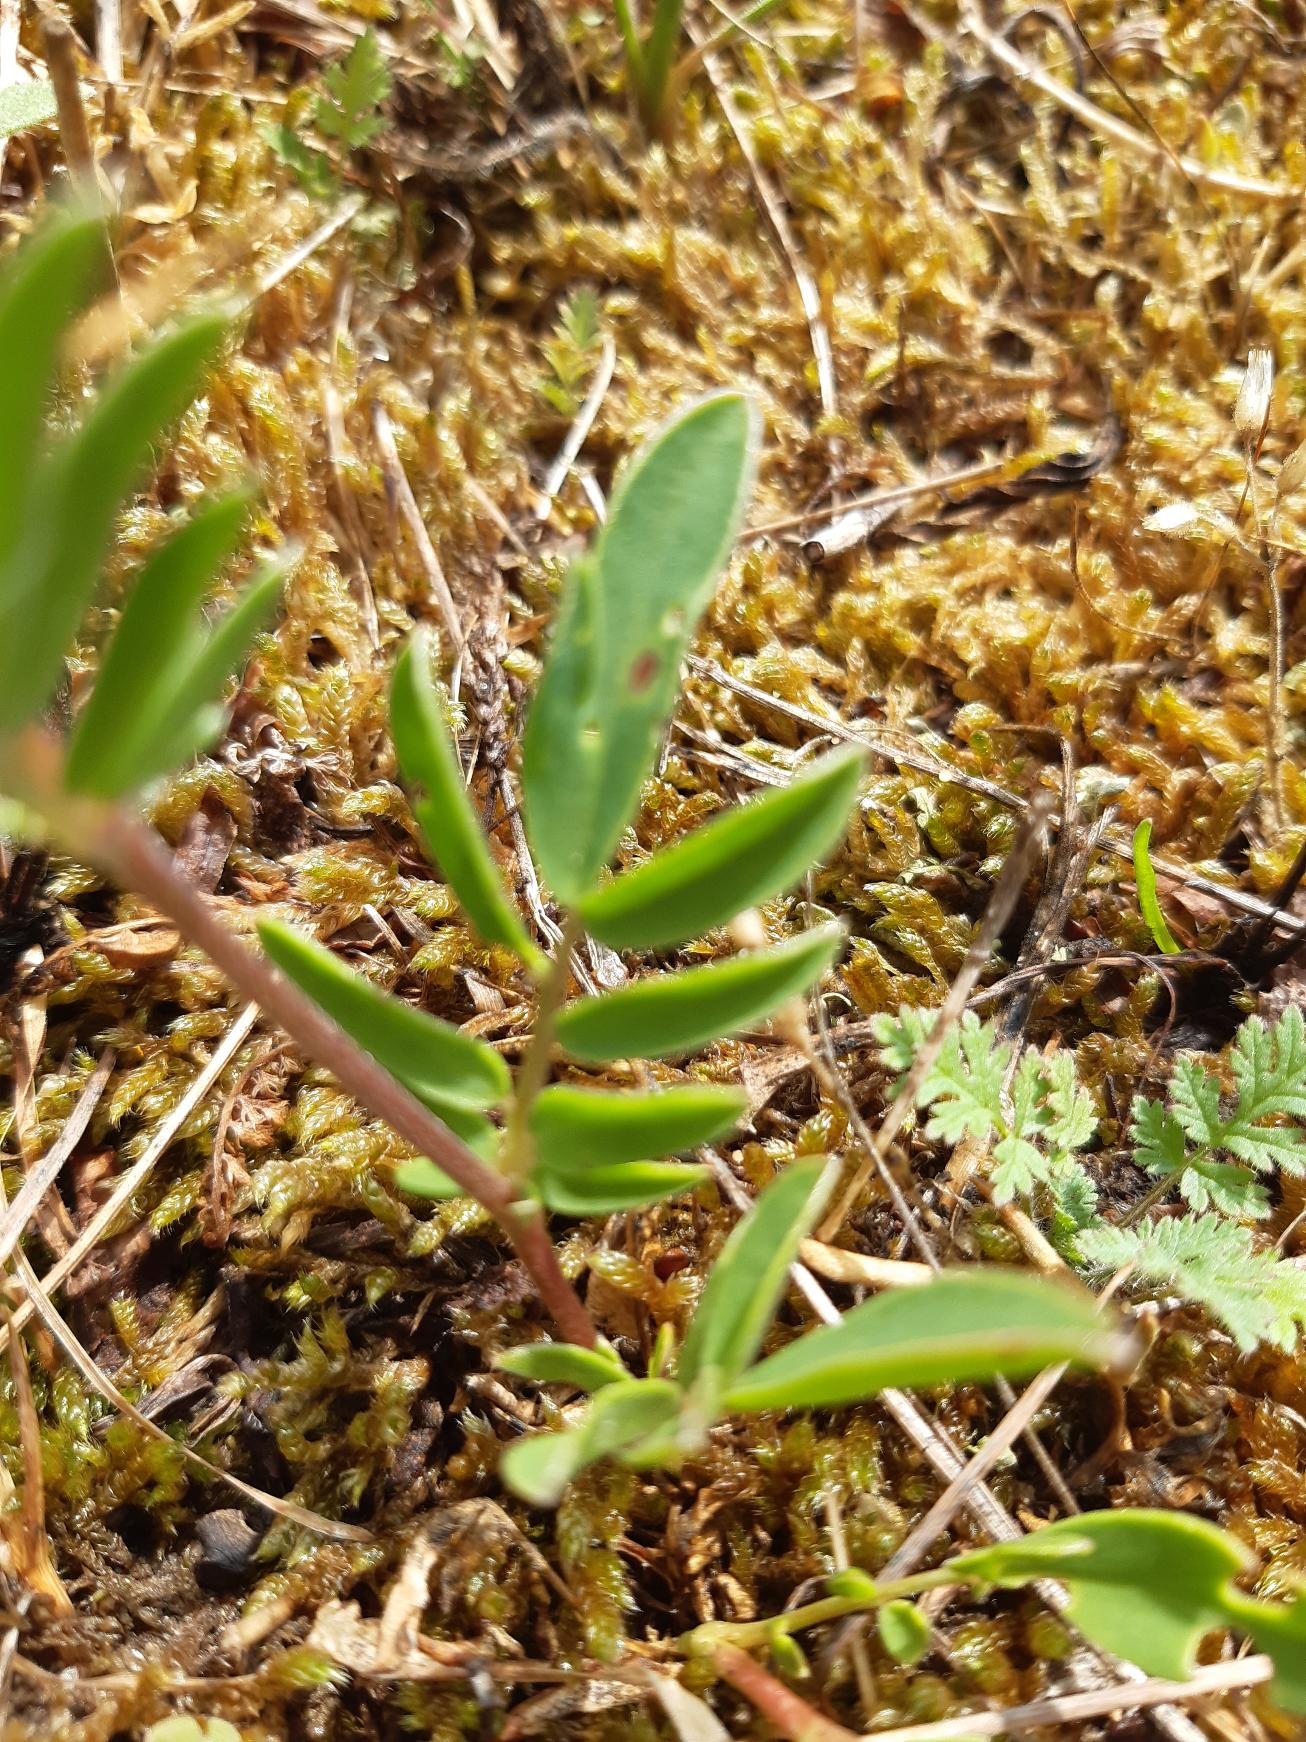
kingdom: Plantae
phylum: Tracheophyta
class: Magnoliopsida
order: Fabales
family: Fabaceae
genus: Anthyllis
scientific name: Anthyllis vulneraria
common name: Rundbælg
